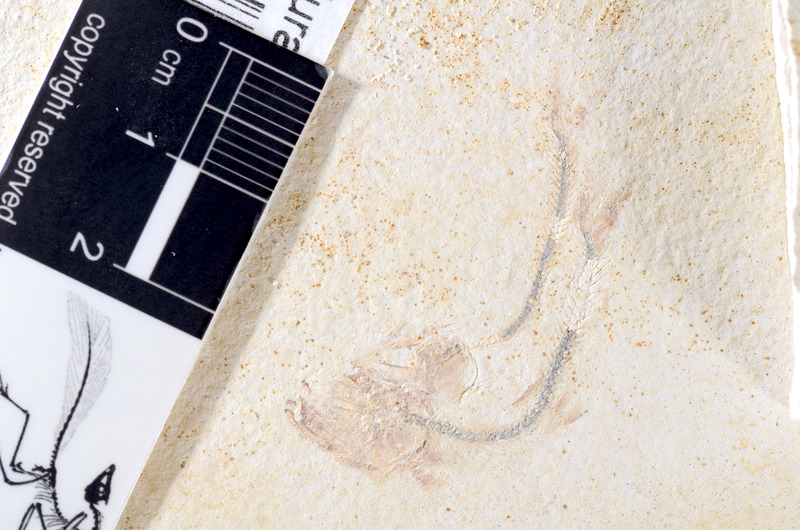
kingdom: Animalia
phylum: Chordata
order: Salmoniformes
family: Orthogonikleithridae
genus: Orthogonikleithrus
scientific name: Orthogonikleithrus hoelli
